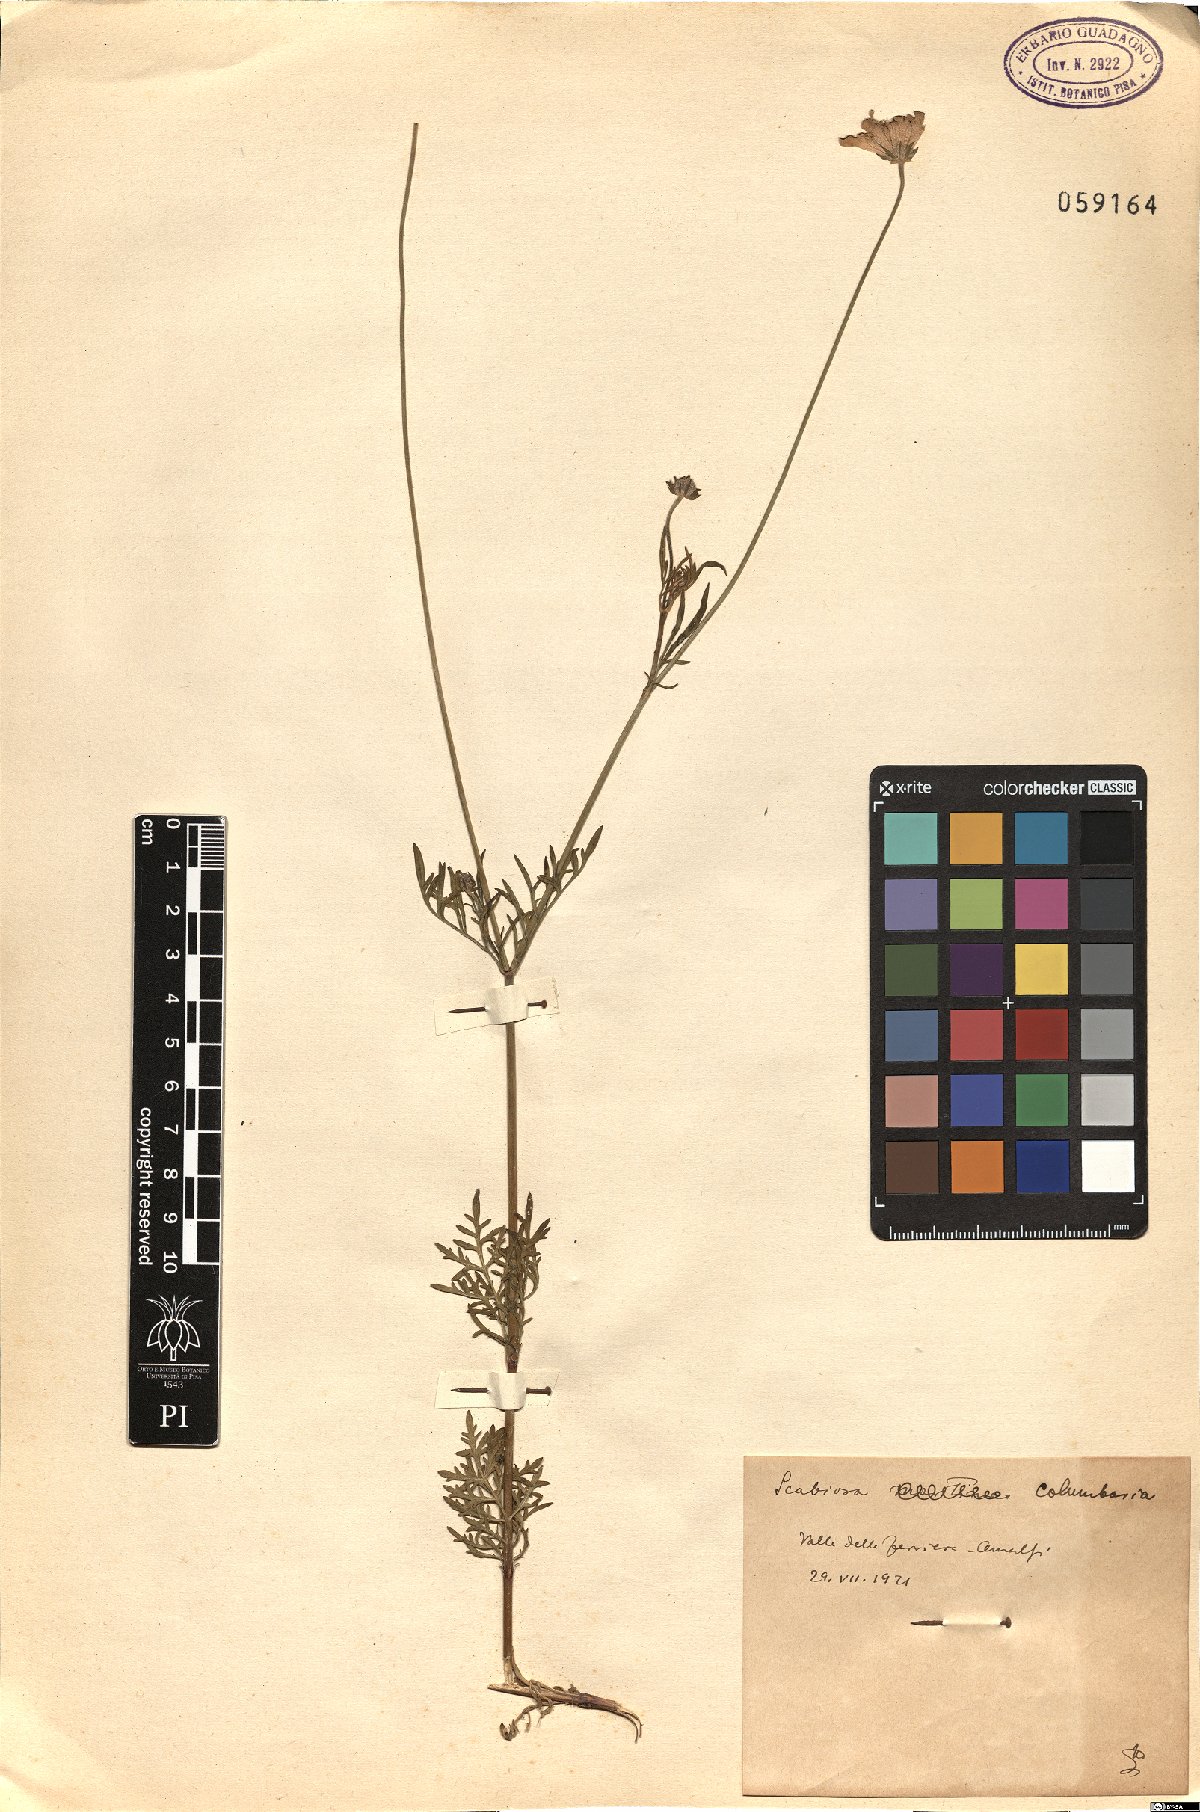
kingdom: Plantae
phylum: Tracheophyta
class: Magnoliopsida
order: Dipsacales
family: Caprifoliaceae
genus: Scabiosa
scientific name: Scabiosa columbaria
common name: Small scabious
